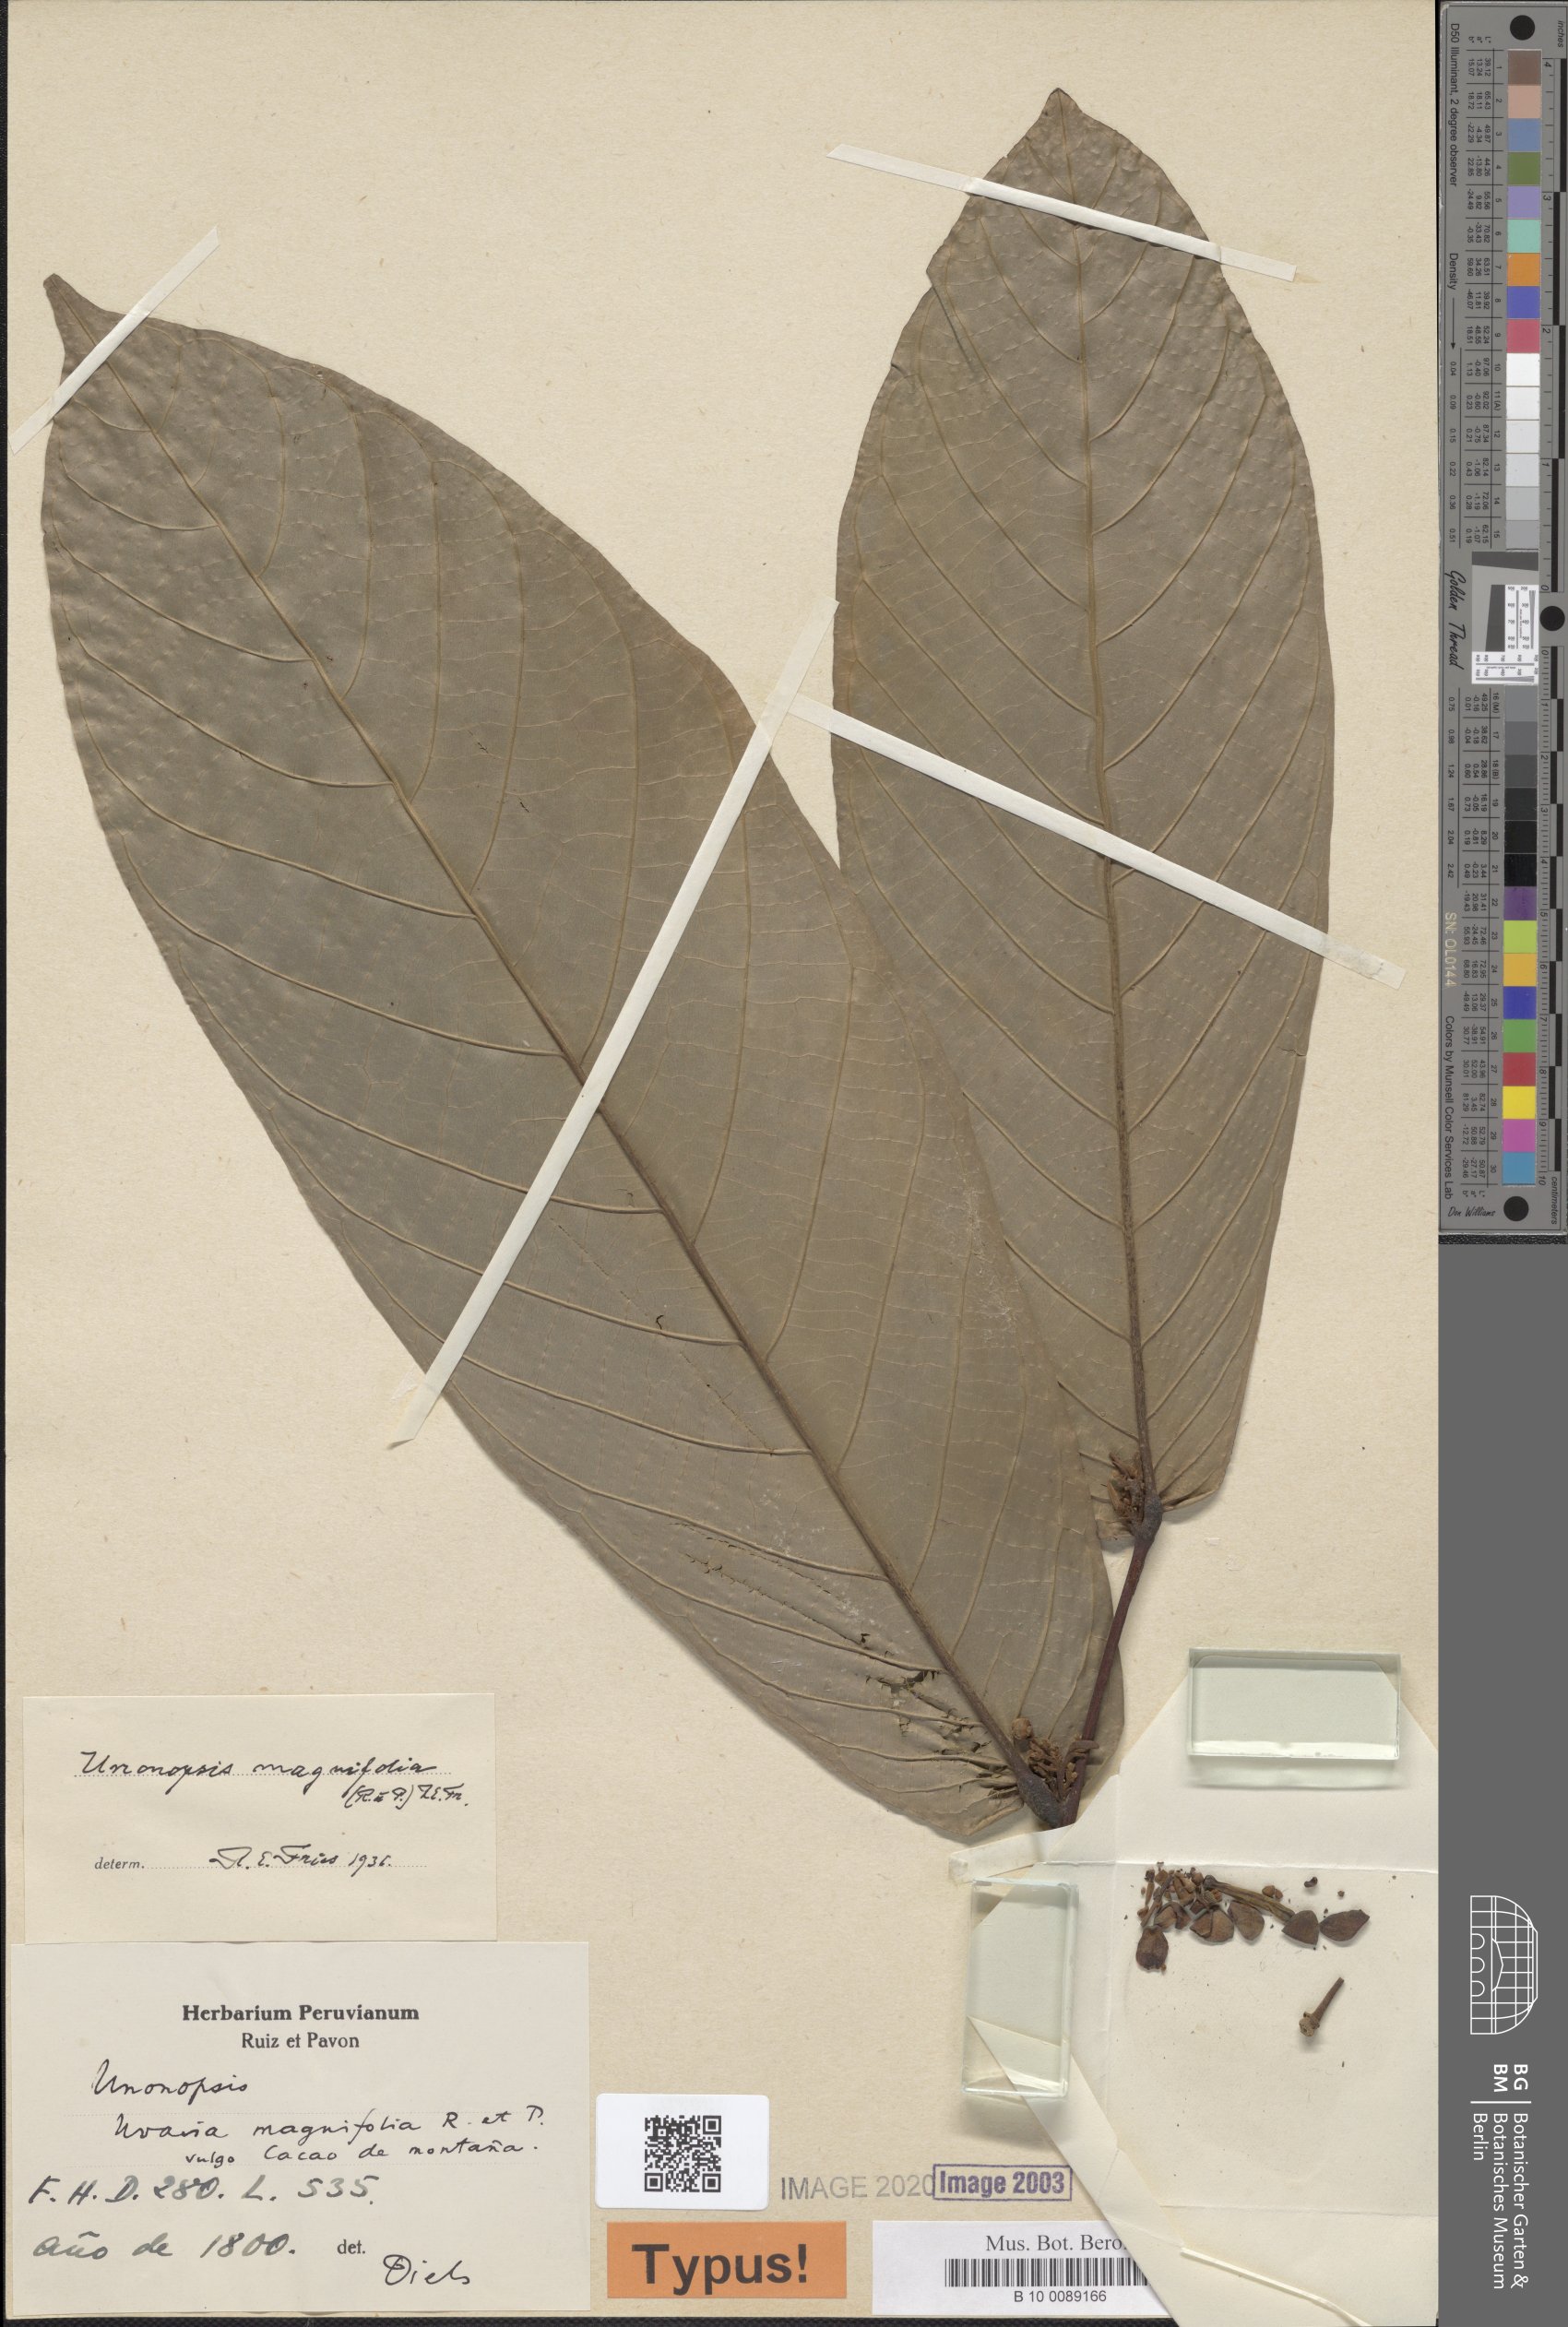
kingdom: Plantae
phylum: Tracheophyta
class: Magnoliopsida
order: Magnoliales
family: Annonaceae
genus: Unonopsis
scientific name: Unonopsis magnifolia
